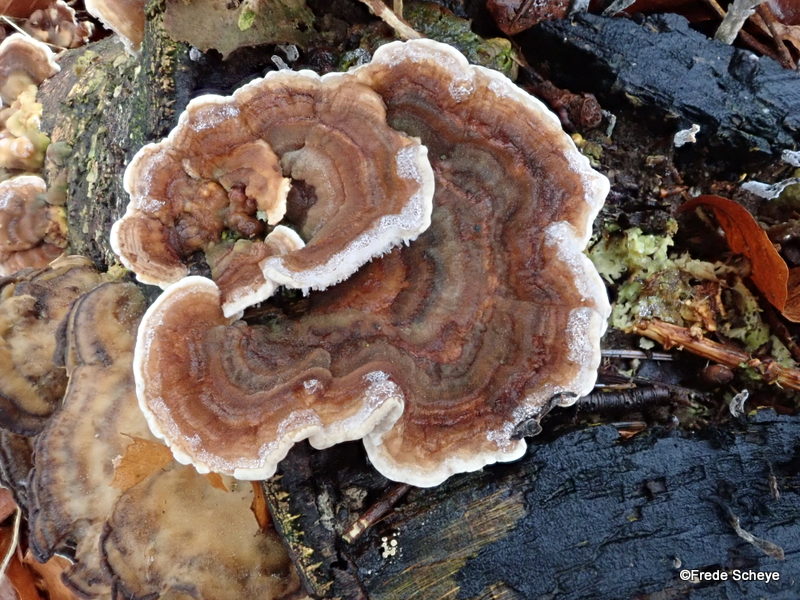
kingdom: Fungi
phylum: Basidiomycota
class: Agaricomycetes
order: Polyporales
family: Polyporaceae
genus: Trametes
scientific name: Trametes versicolor
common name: broget læderporesvamp
